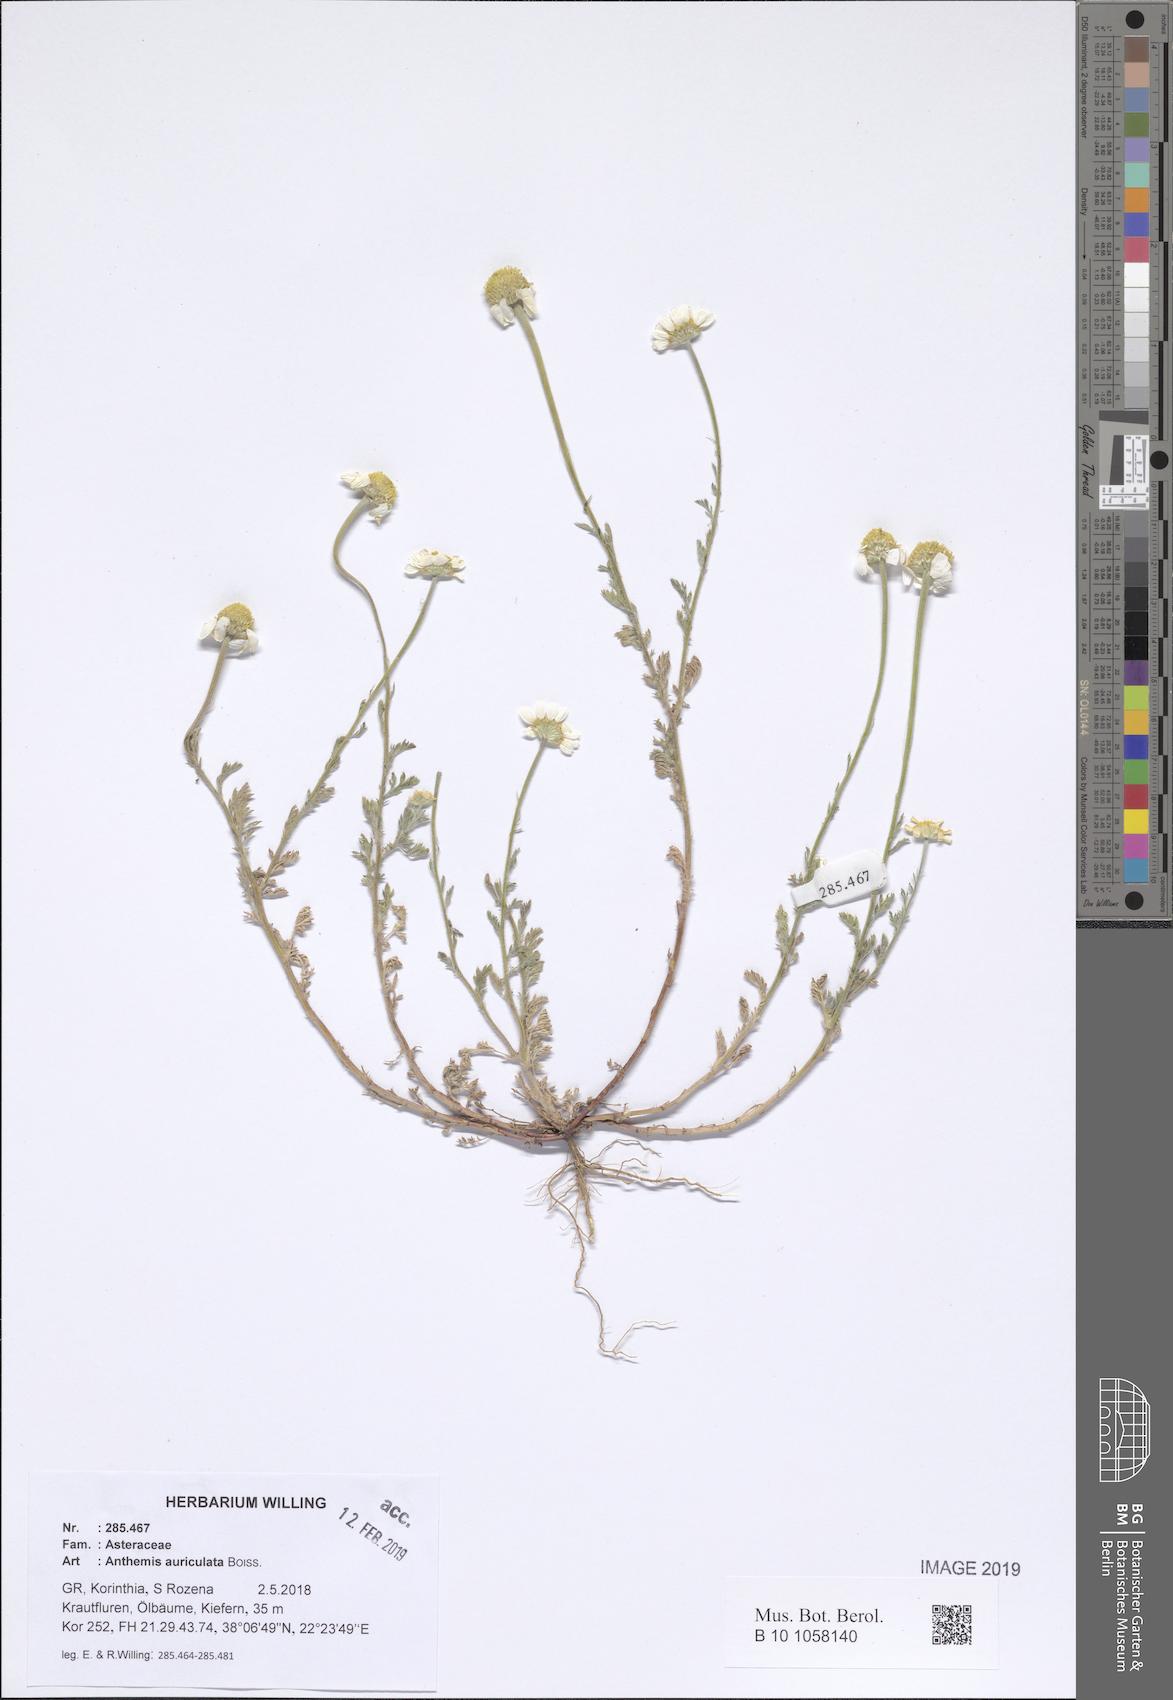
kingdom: Plantae
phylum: Tracheophyta
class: Magnoliopsida
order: Asterales
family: Asteraceae
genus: Anthemis
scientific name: Anthemis auriculata
